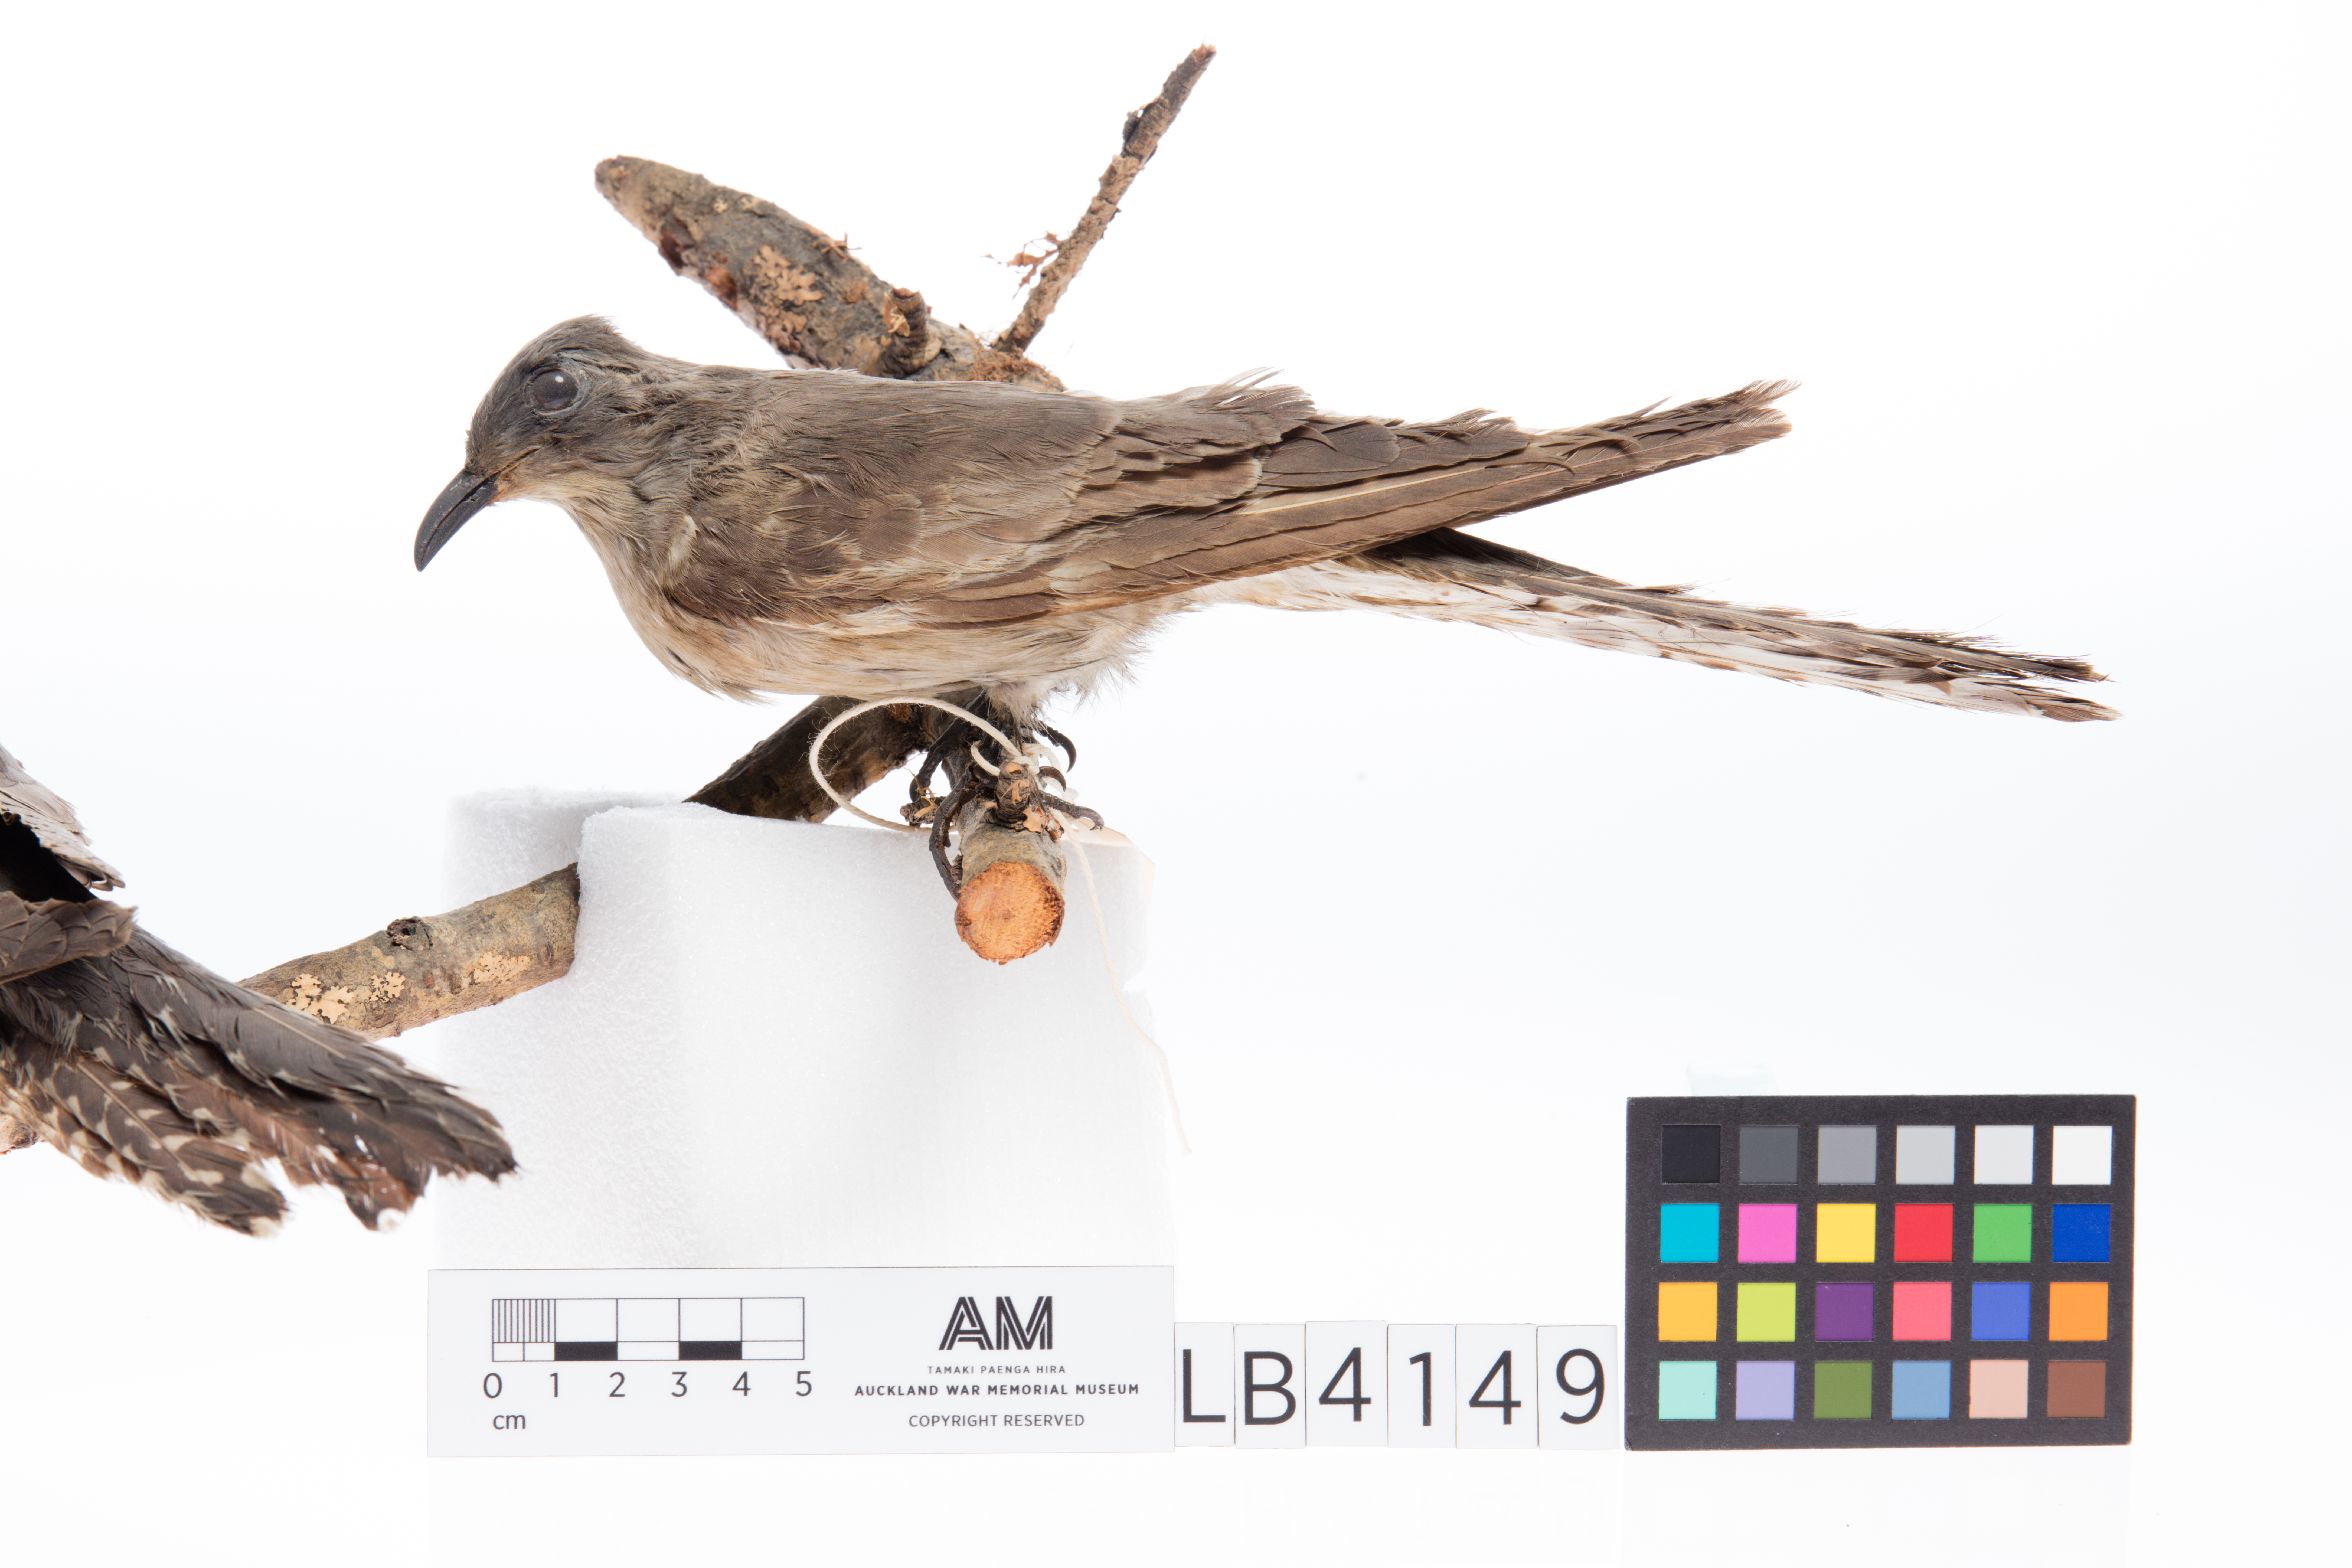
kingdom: Animalia
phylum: Chordata
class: Aves
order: Cuculiformes
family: Cuculidae
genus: Cuculus
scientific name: Cuculus pallidus
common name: Pallid cuckoo
